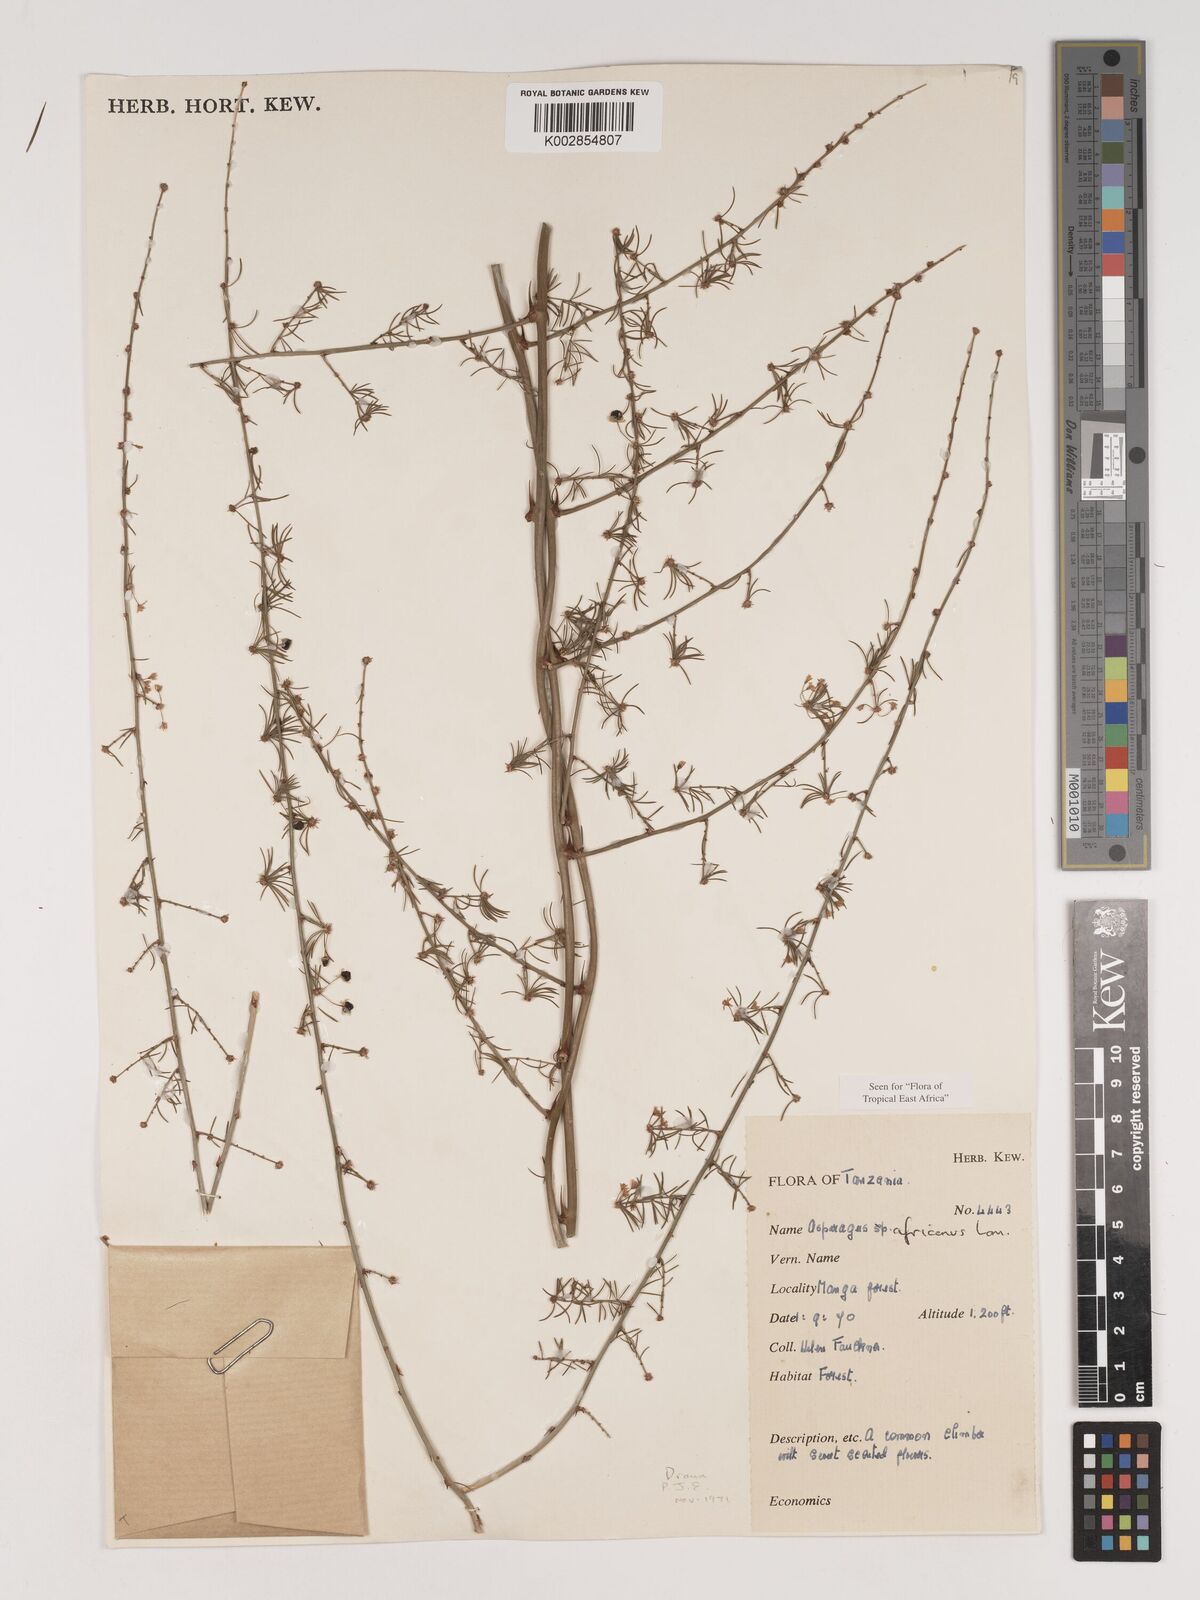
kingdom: Plantae
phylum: Tracheophyta
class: Liliopsida
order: Asparagales
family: Asparagaceae
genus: Asparagus
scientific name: Asparagus africanus
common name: Asparagus-fern
